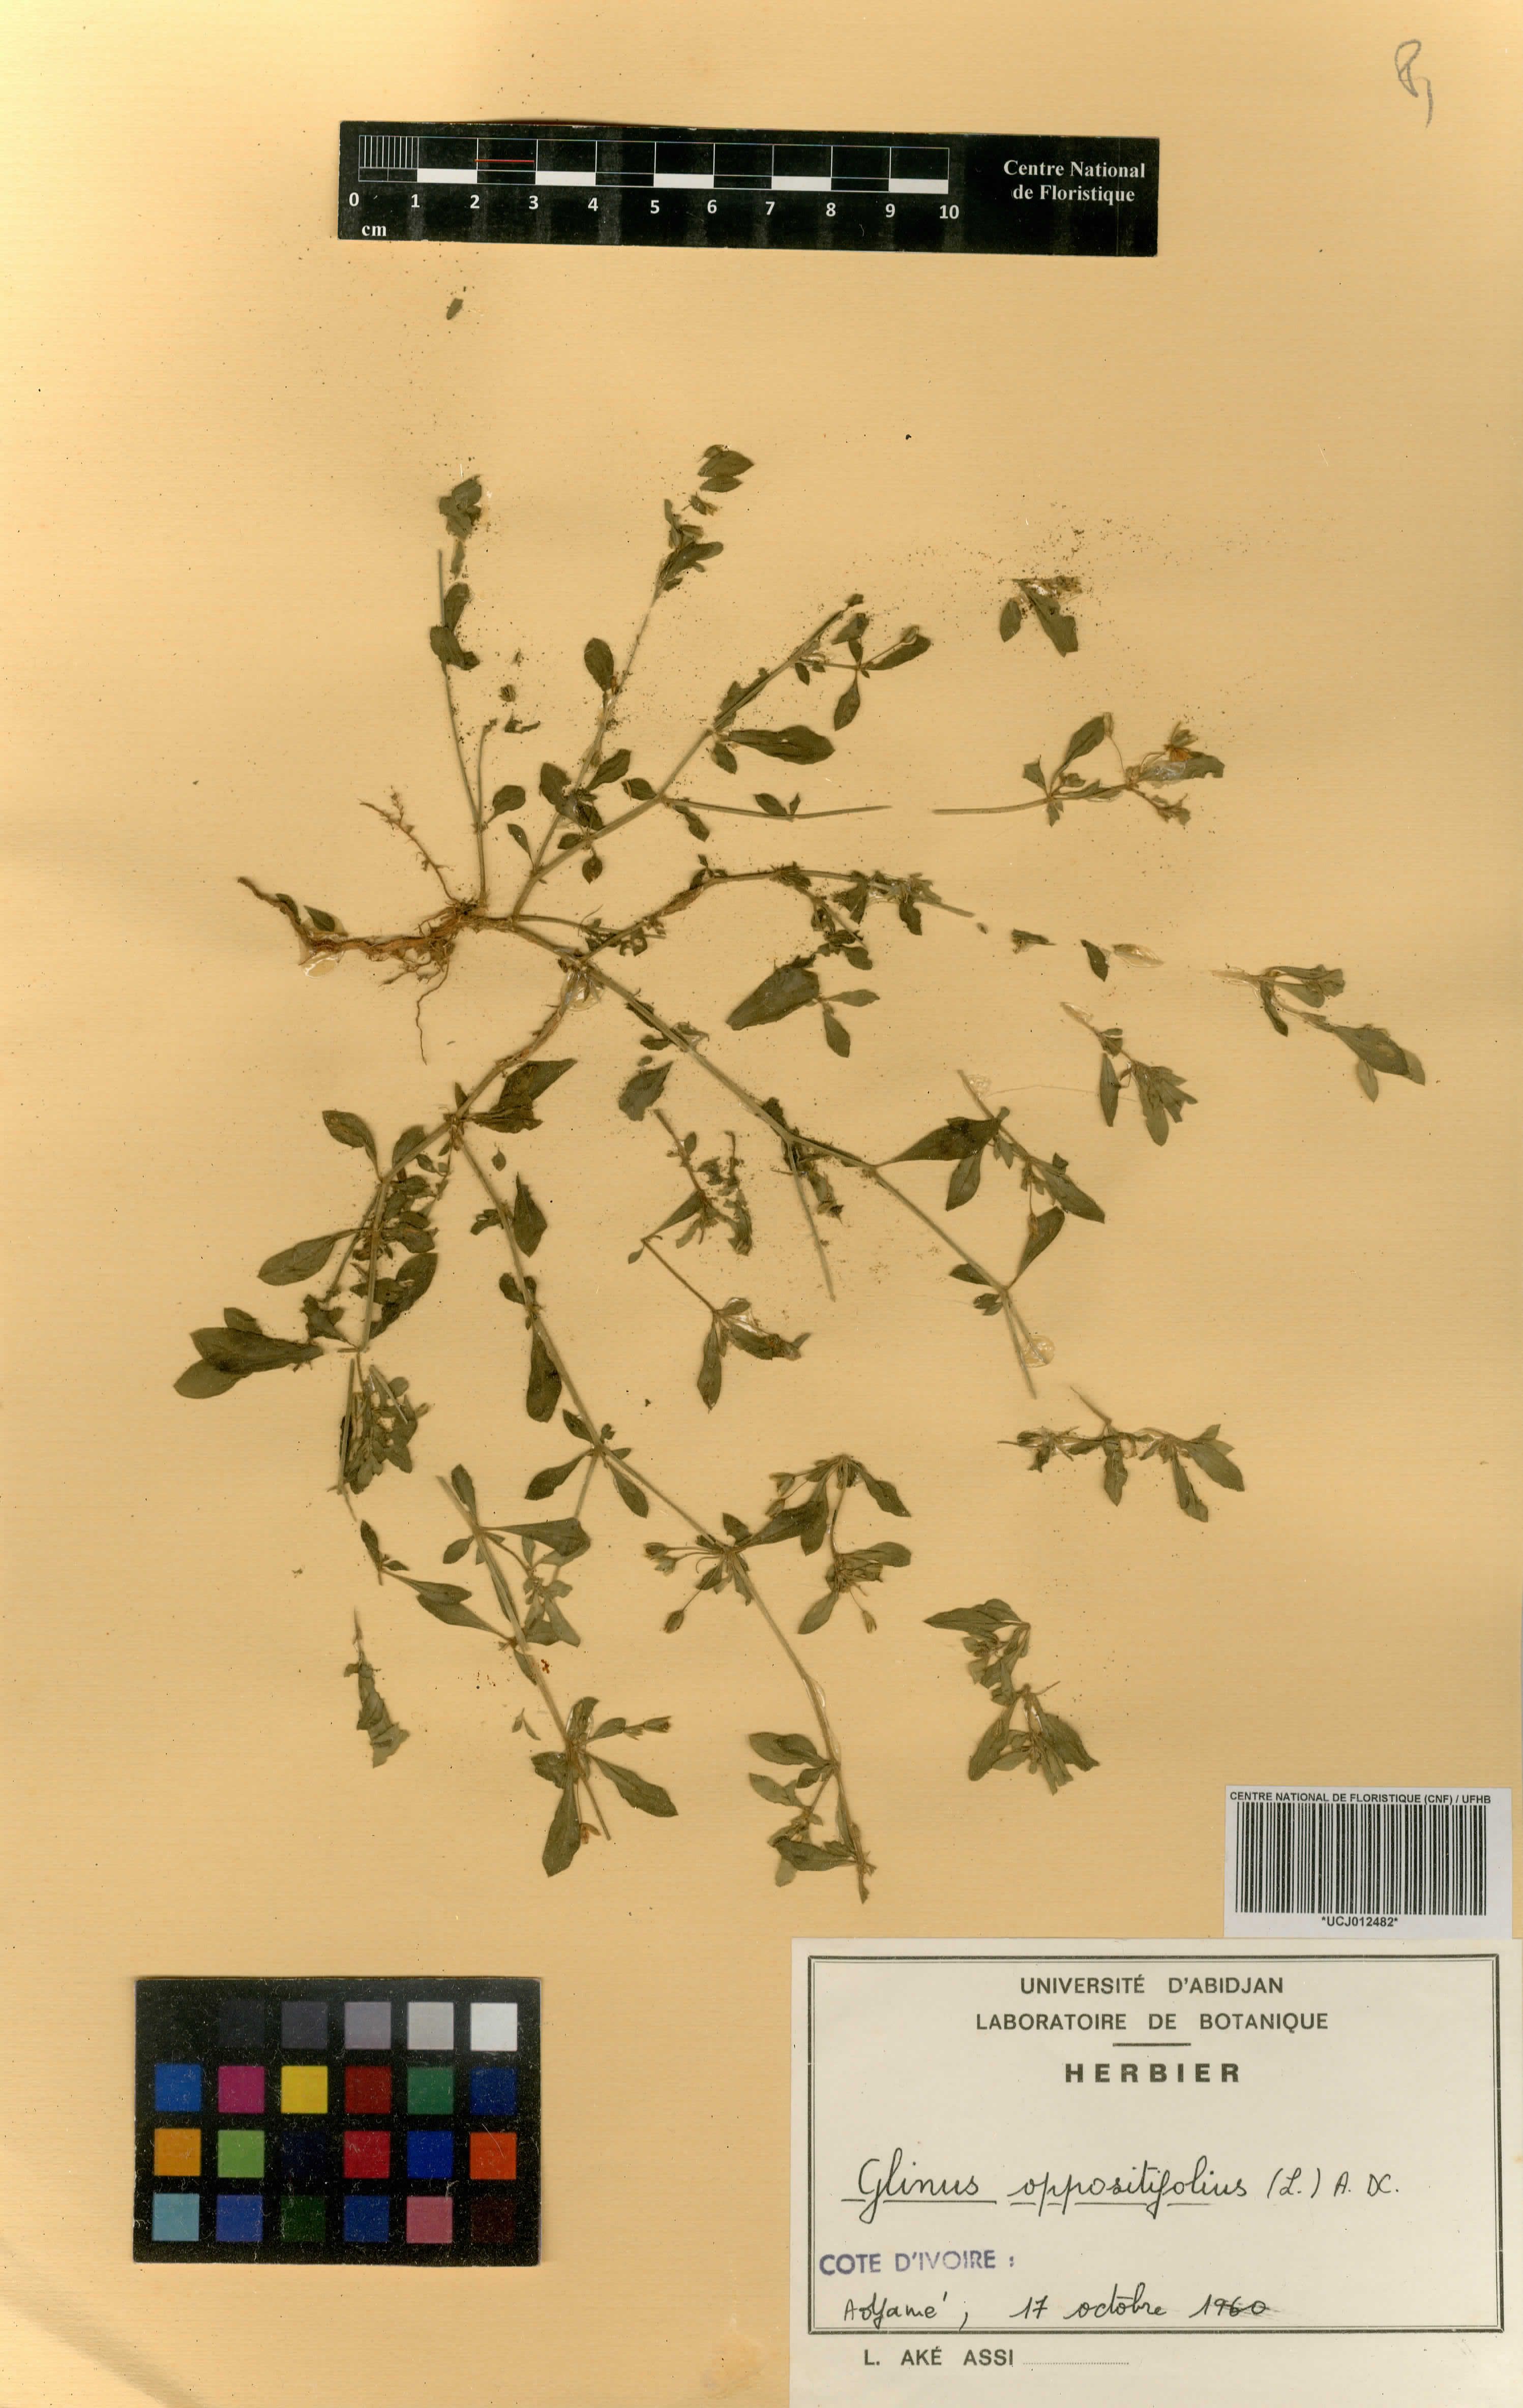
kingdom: Plantae
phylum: Tracheophyta
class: Magnoliopsida
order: Caryophyllales
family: Molluginaceae
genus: Glinus
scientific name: Glinus oppositifolius
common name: Slender carpetweed
